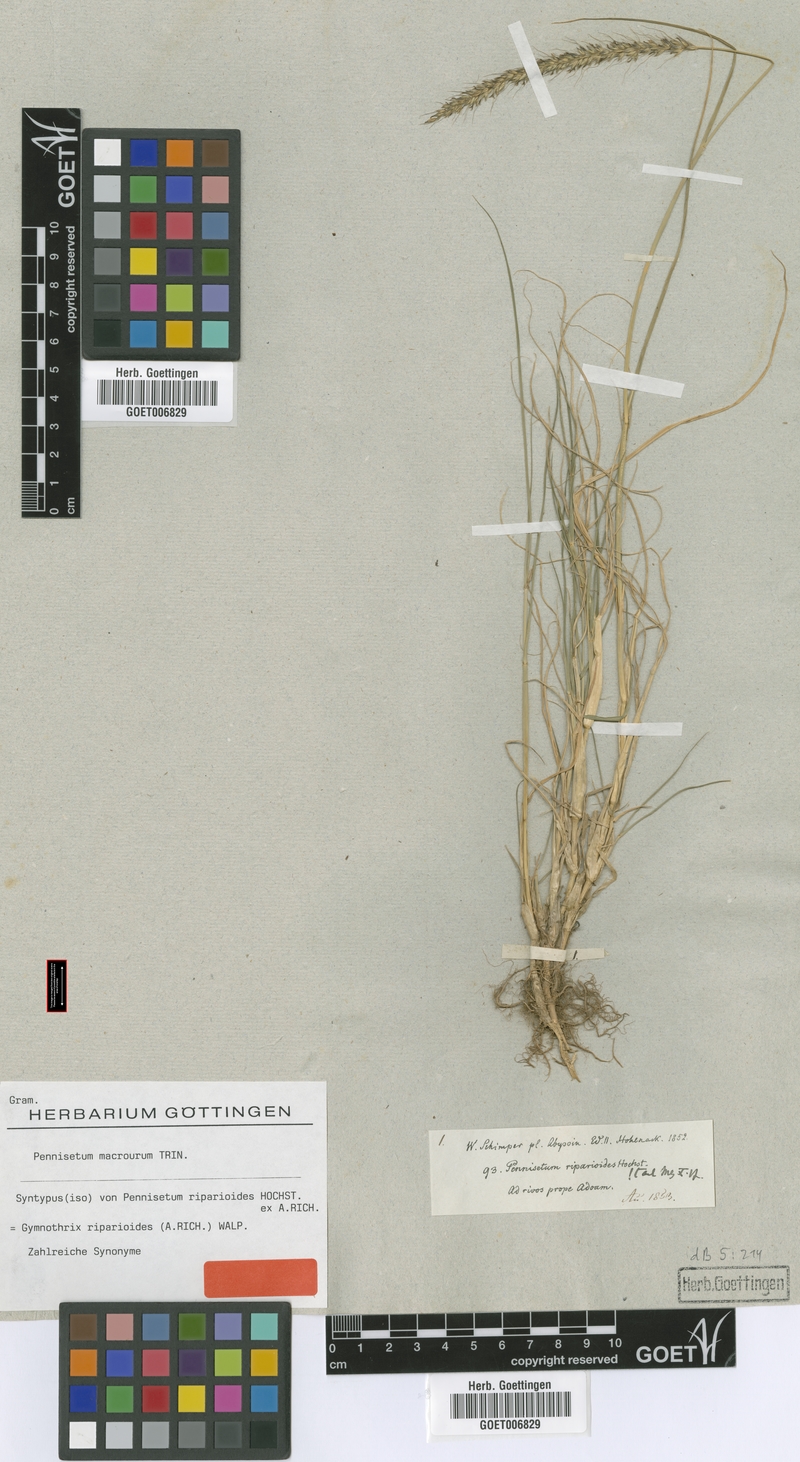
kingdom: Plantae
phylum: Tracheophyta
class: Liliopsida
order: Poales
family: Poaceae
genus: Cenchrus
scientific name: Cenchrus caudatus
